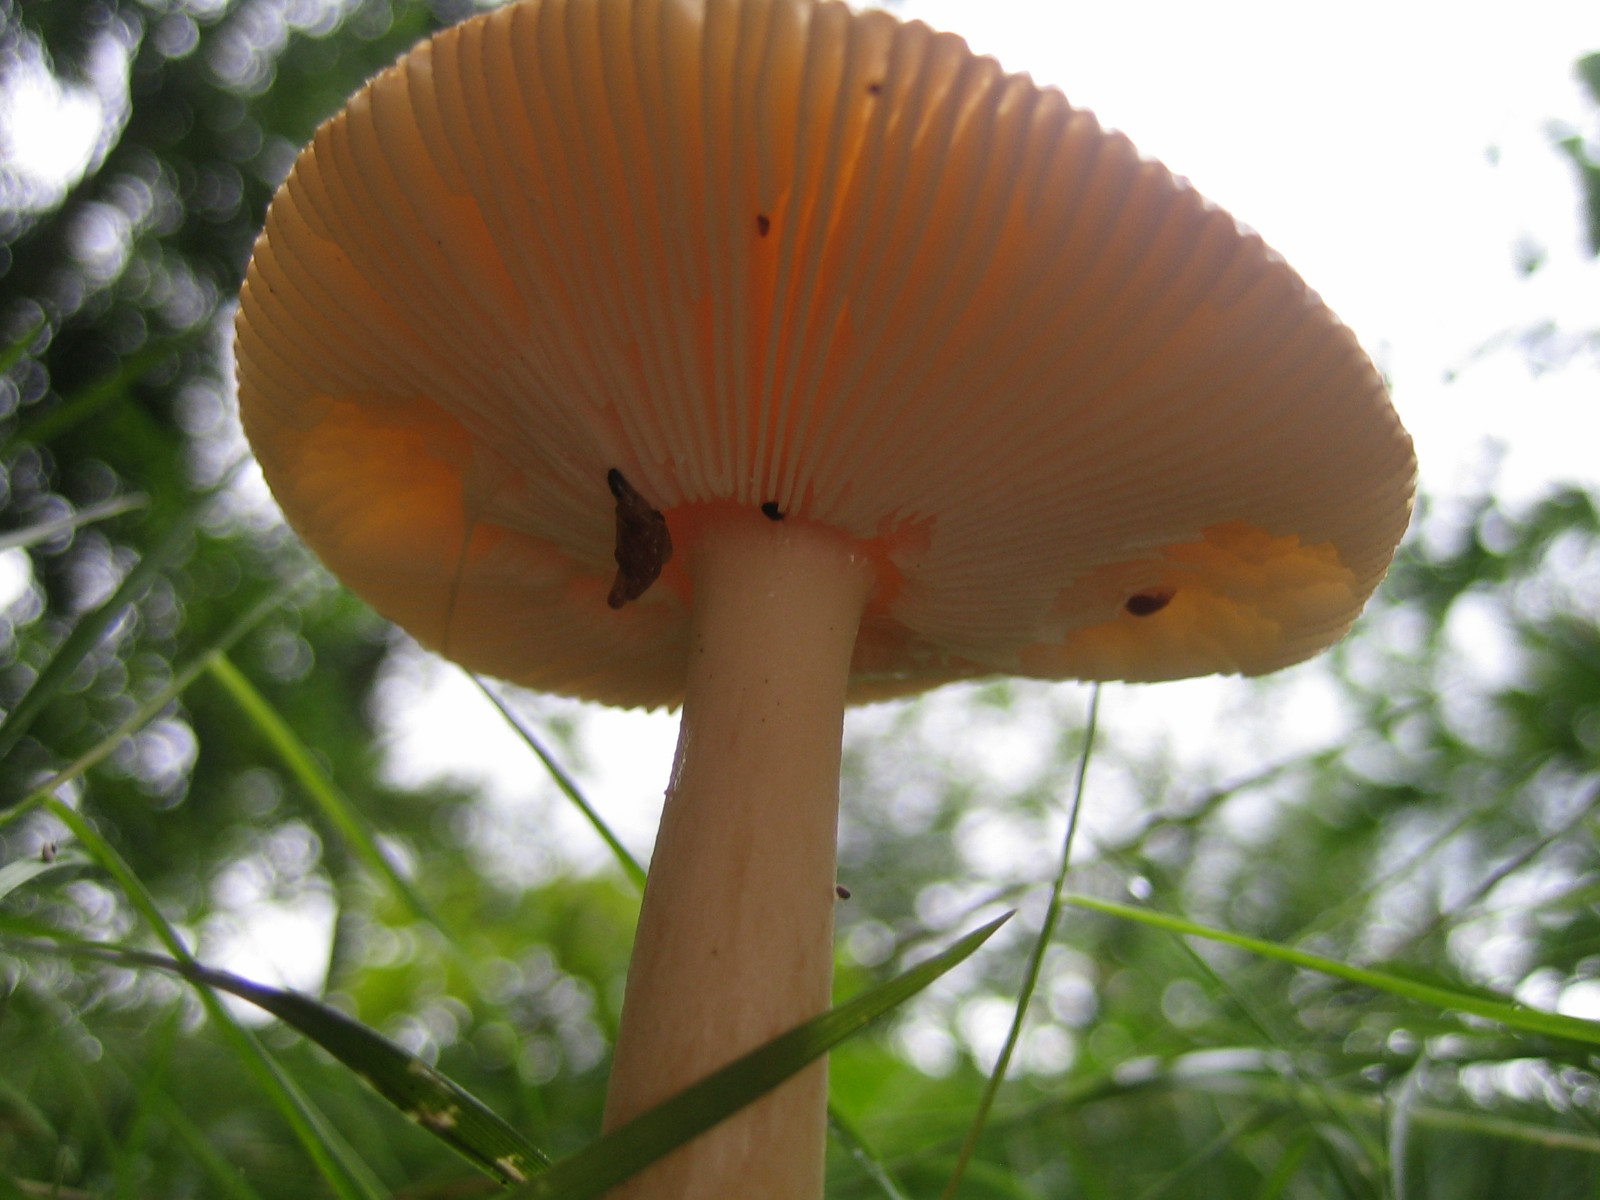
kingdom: Fungi
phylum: Basidiomycota
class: Agaricomycetes
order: Agaricales
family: Amanitaceae
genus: Amanita
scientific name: Amanita
